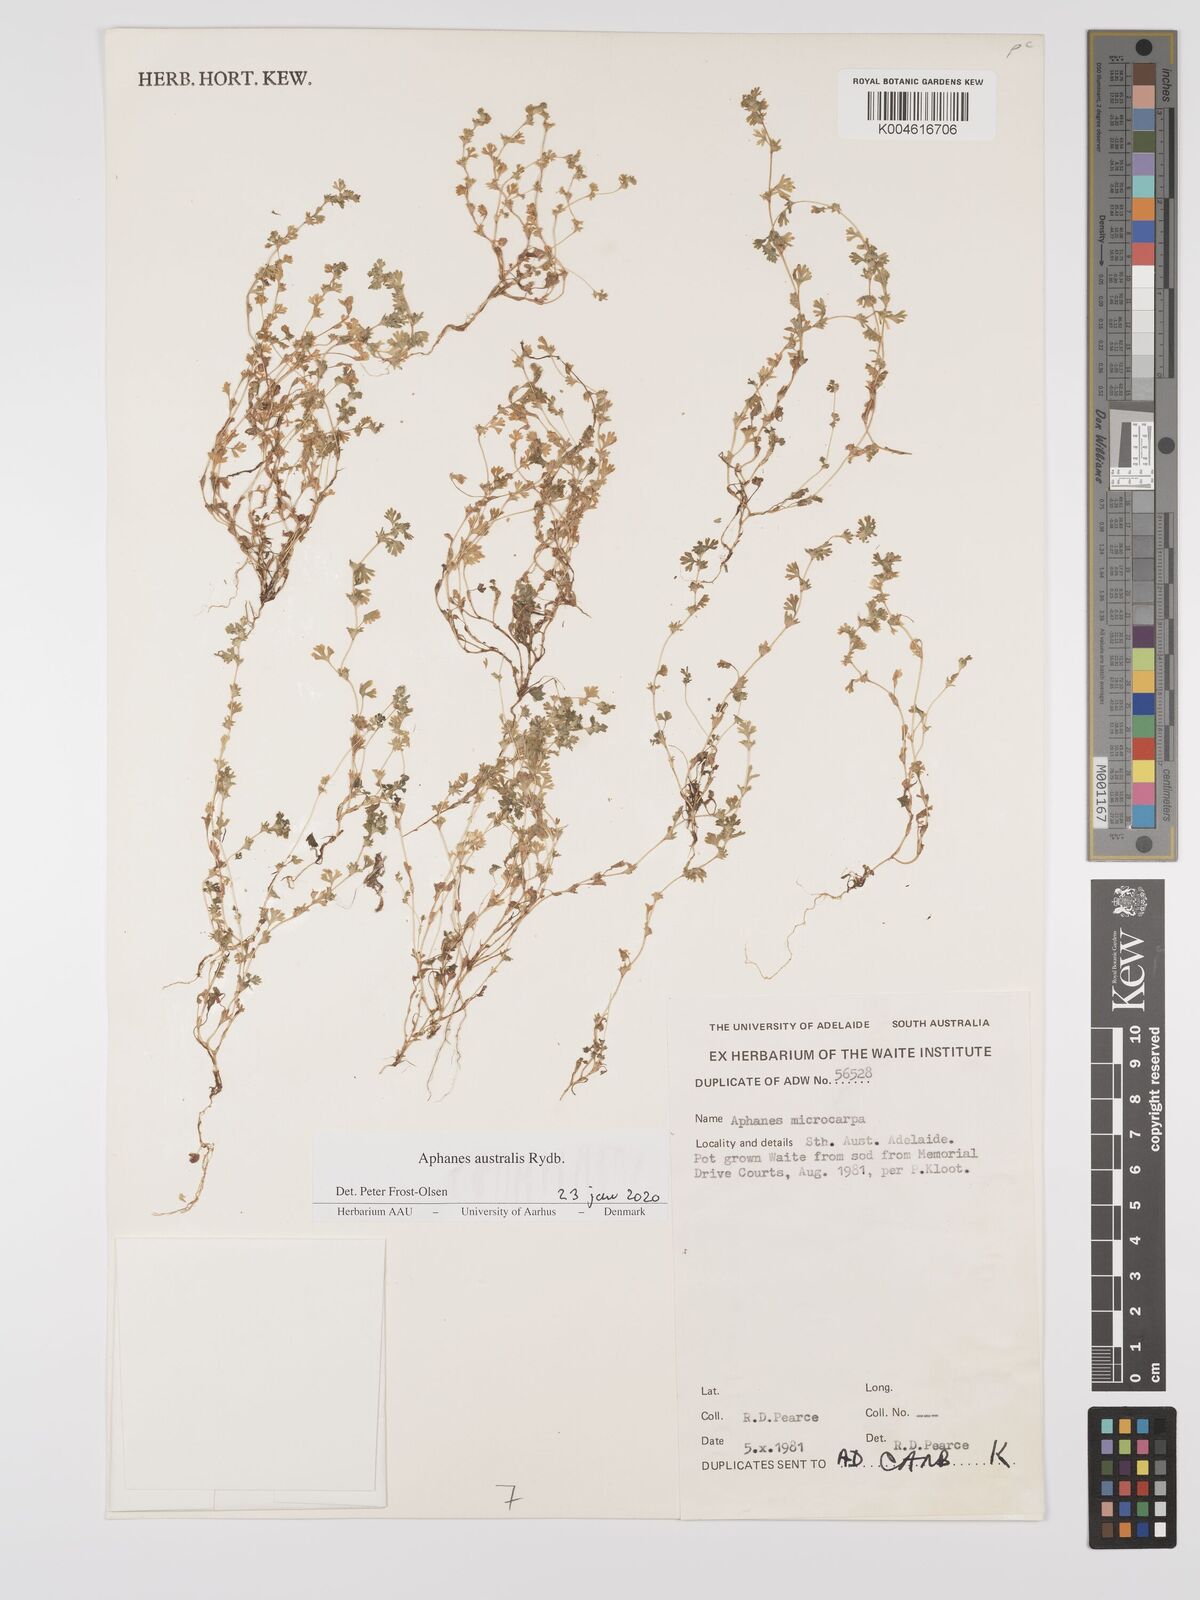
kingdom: Plantae
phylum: Tracheophyta
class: Magnoliopsida
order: Rosales
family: Rosaceae
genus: Aphanes
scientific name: Aphanes arvensis
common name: Parsley-piert
